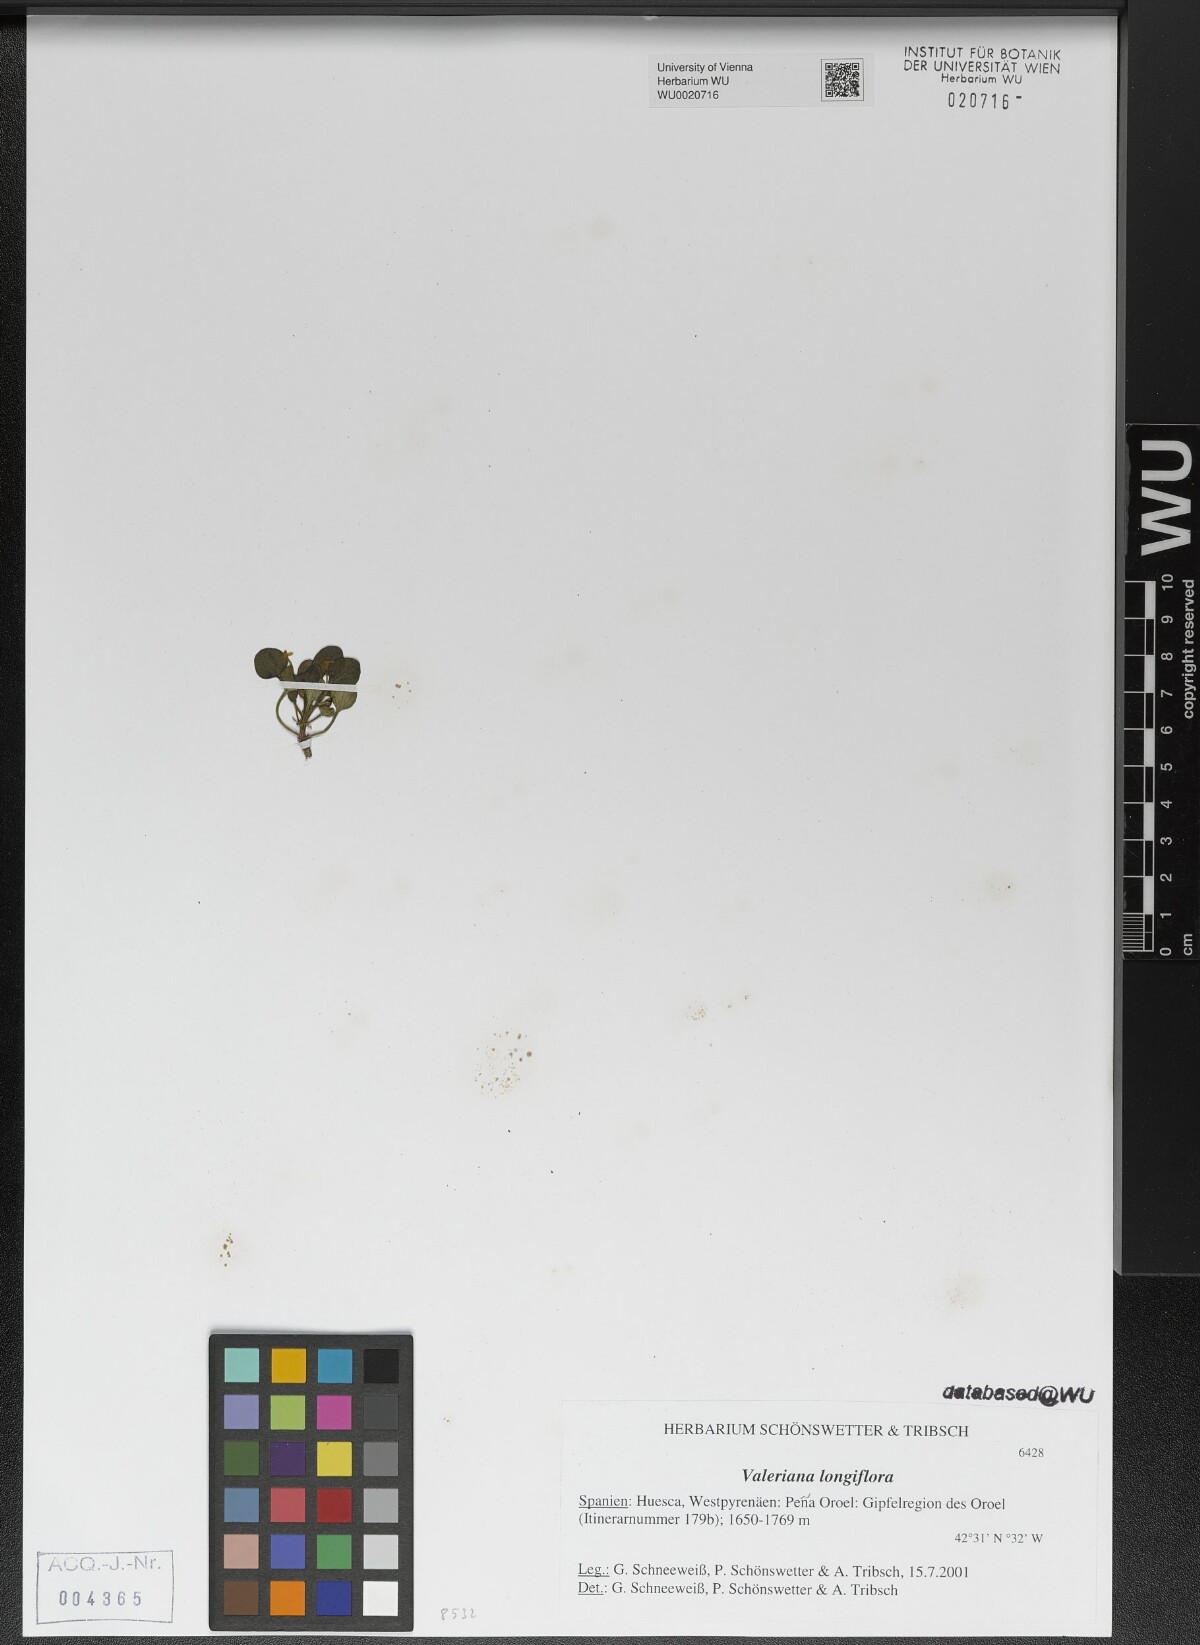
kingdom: Plantae
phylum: Tracheophyta
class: Magnoliopsida
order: Dipsacales
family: Caprifoliaceae
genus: Valeriana
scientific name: Valeriana longiflora
